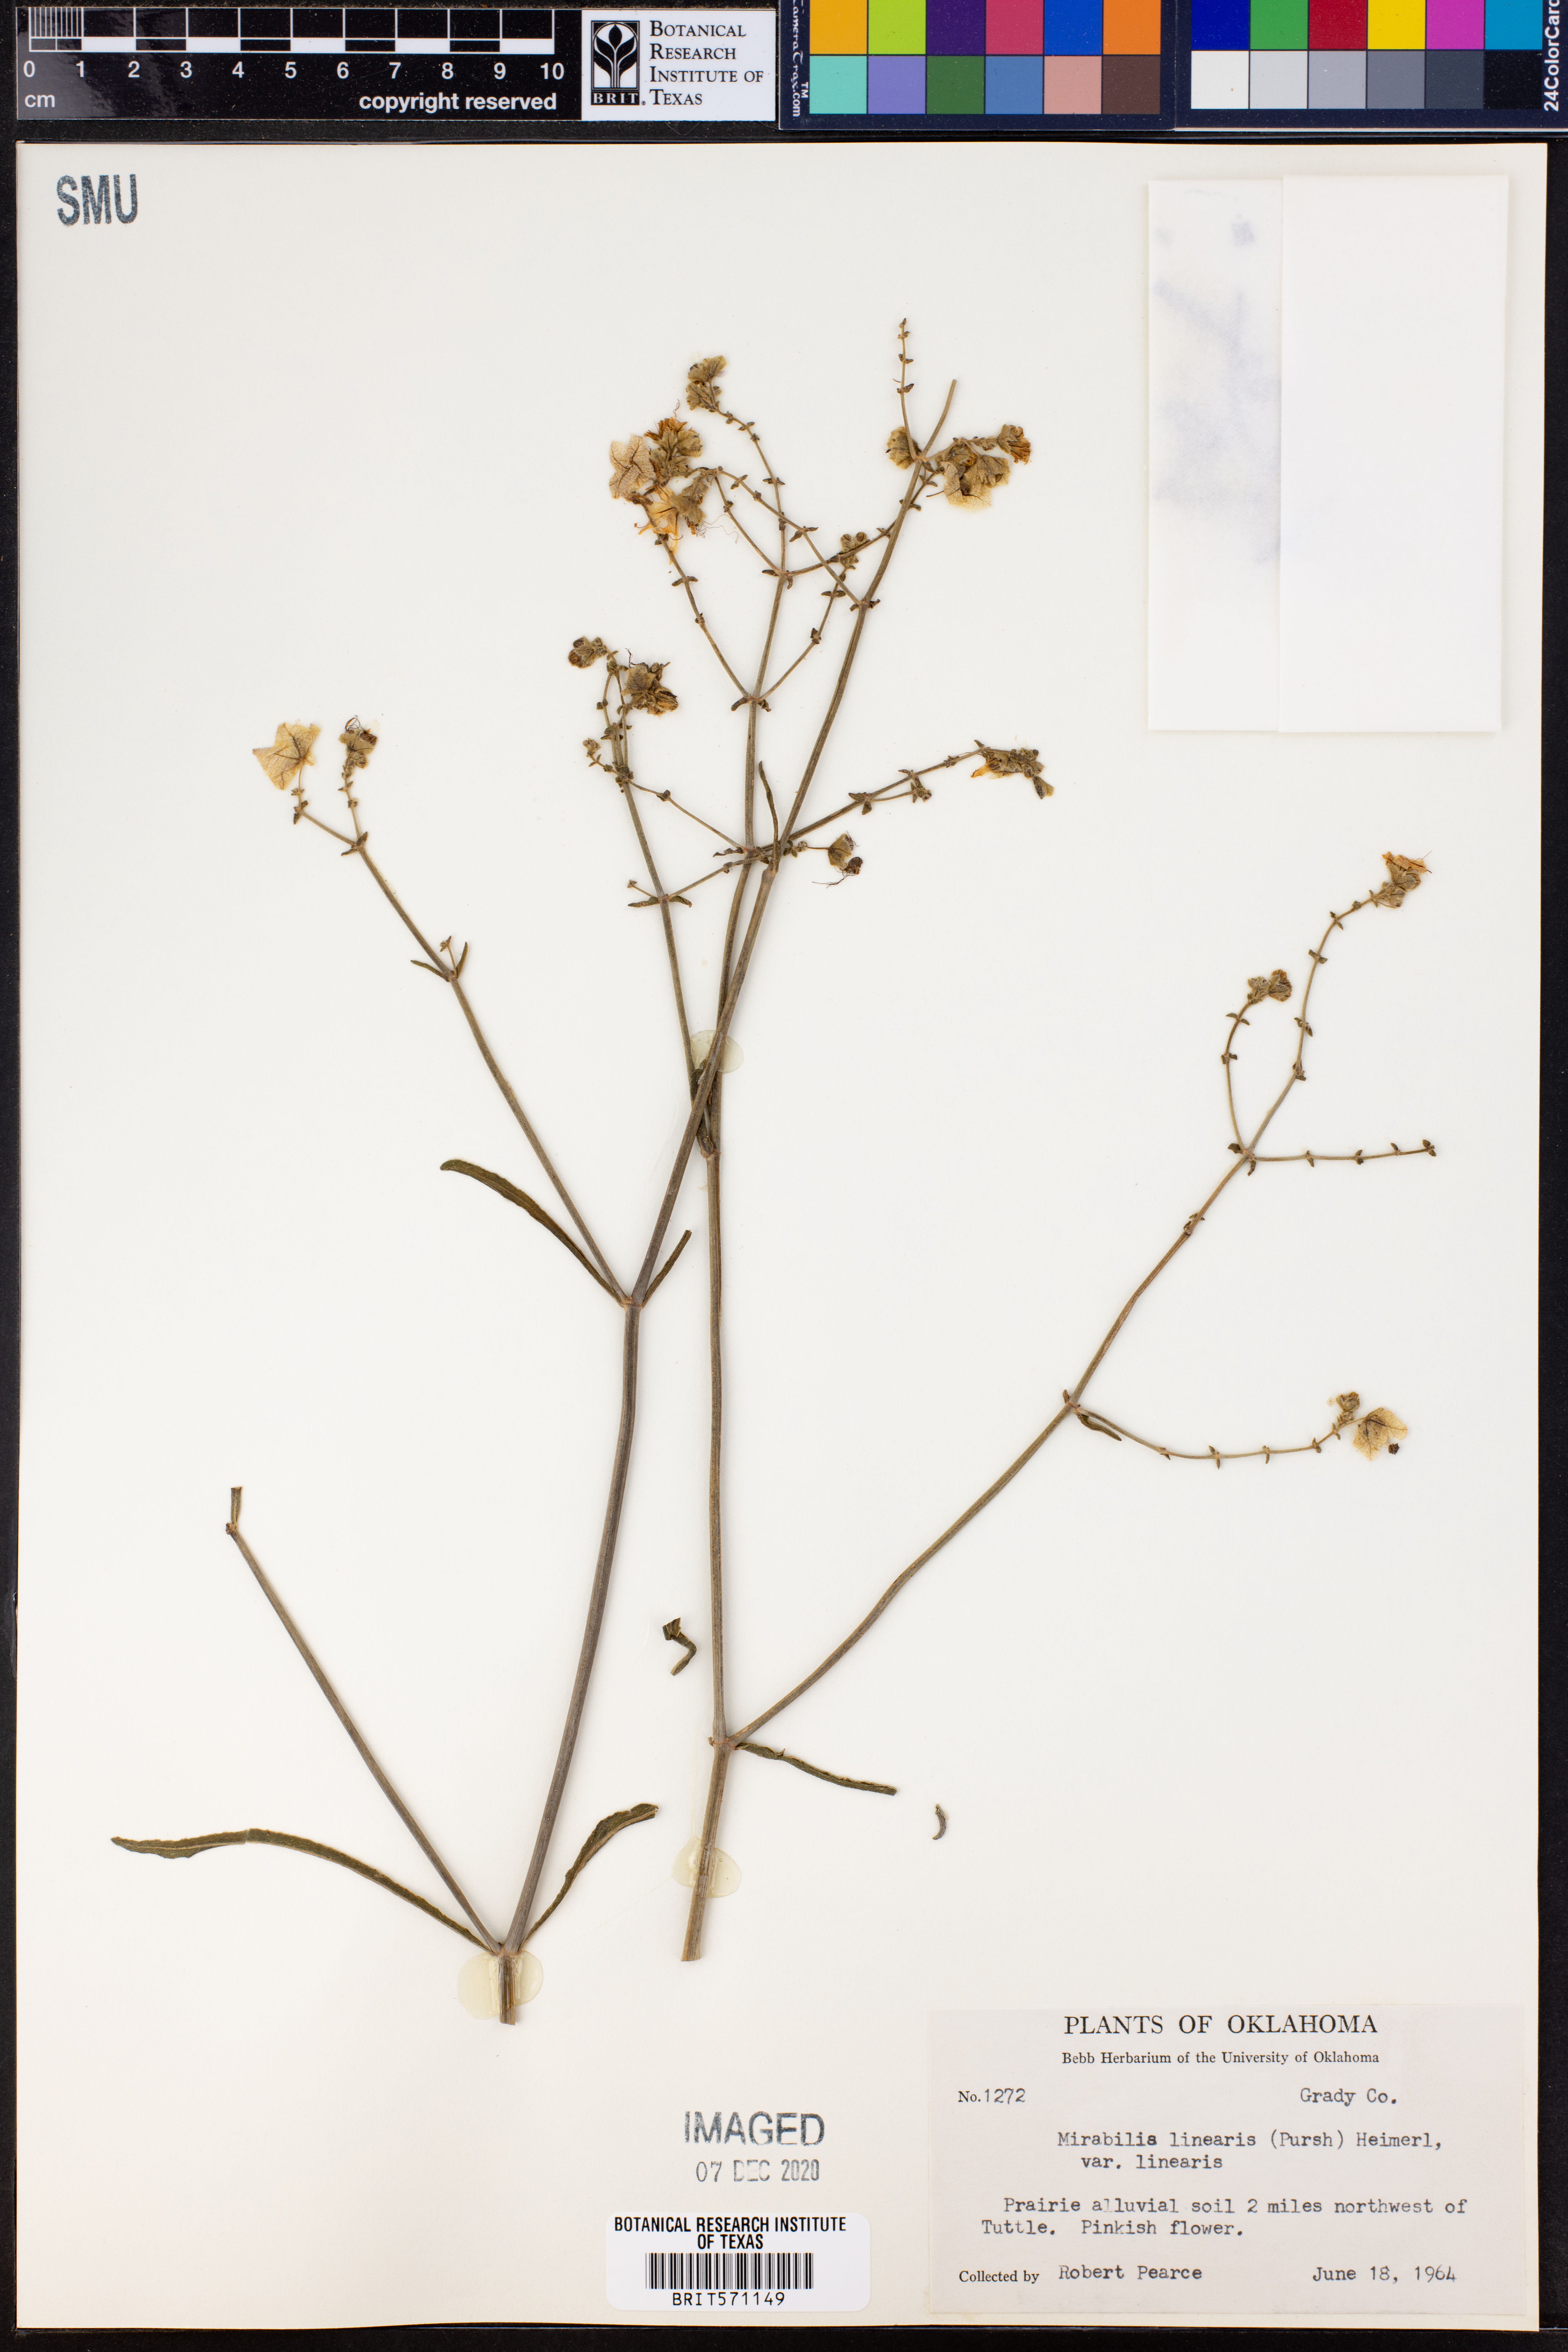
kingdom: Plantae
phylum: Tracheophyta
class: Magnoliopsida
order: Caryophyllales
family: Nyctaginaceae
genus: Mirabilis
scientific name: Mirabilis linearis
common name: Linear-leaved four-o'clock
